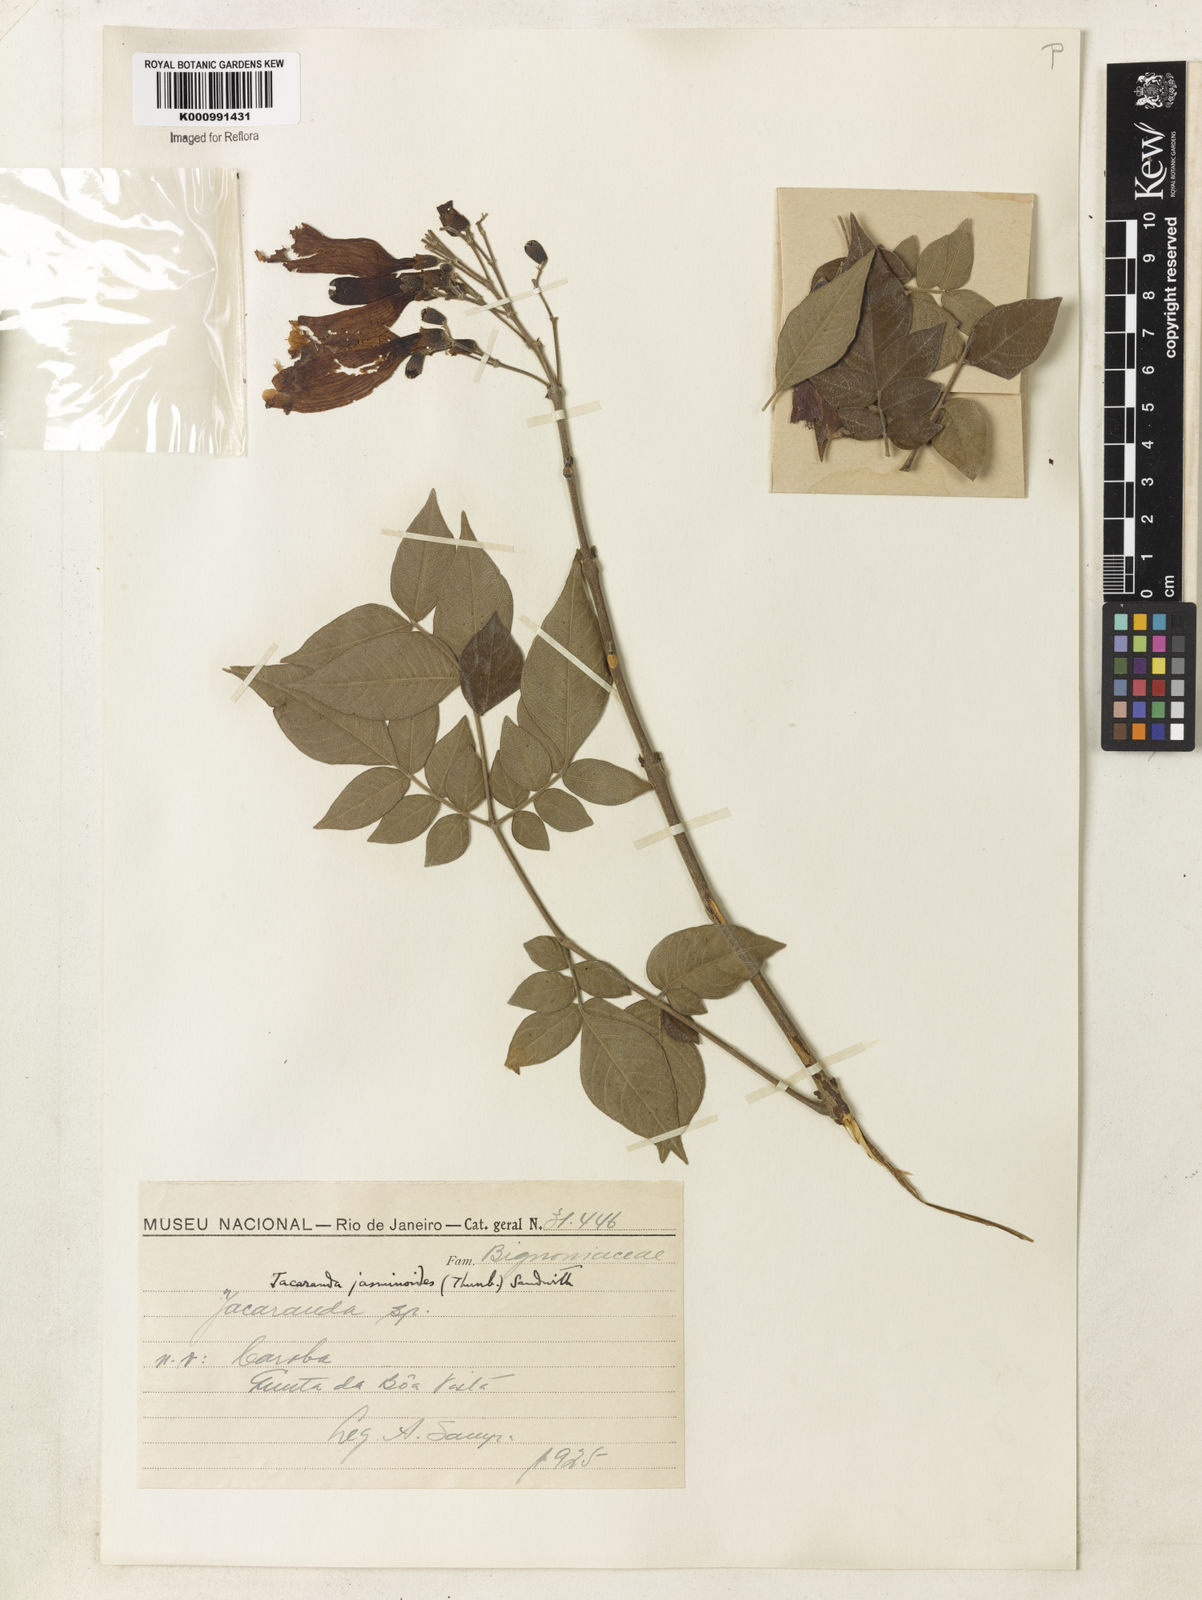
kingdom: Plantae
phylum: Tracheophyta
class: Magnoliopsida
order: Lamiales
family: Bignoniaceae
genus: Jacaranda
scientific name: Jacaranda jasminoides
